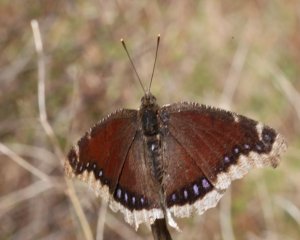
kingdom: Animalia
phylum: Arthropoda
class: Insecta
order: Lepidoptera
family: Nymphalidae
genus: Nymphalis
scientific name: Nymphalis antiopa
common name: Mourning Cloak
